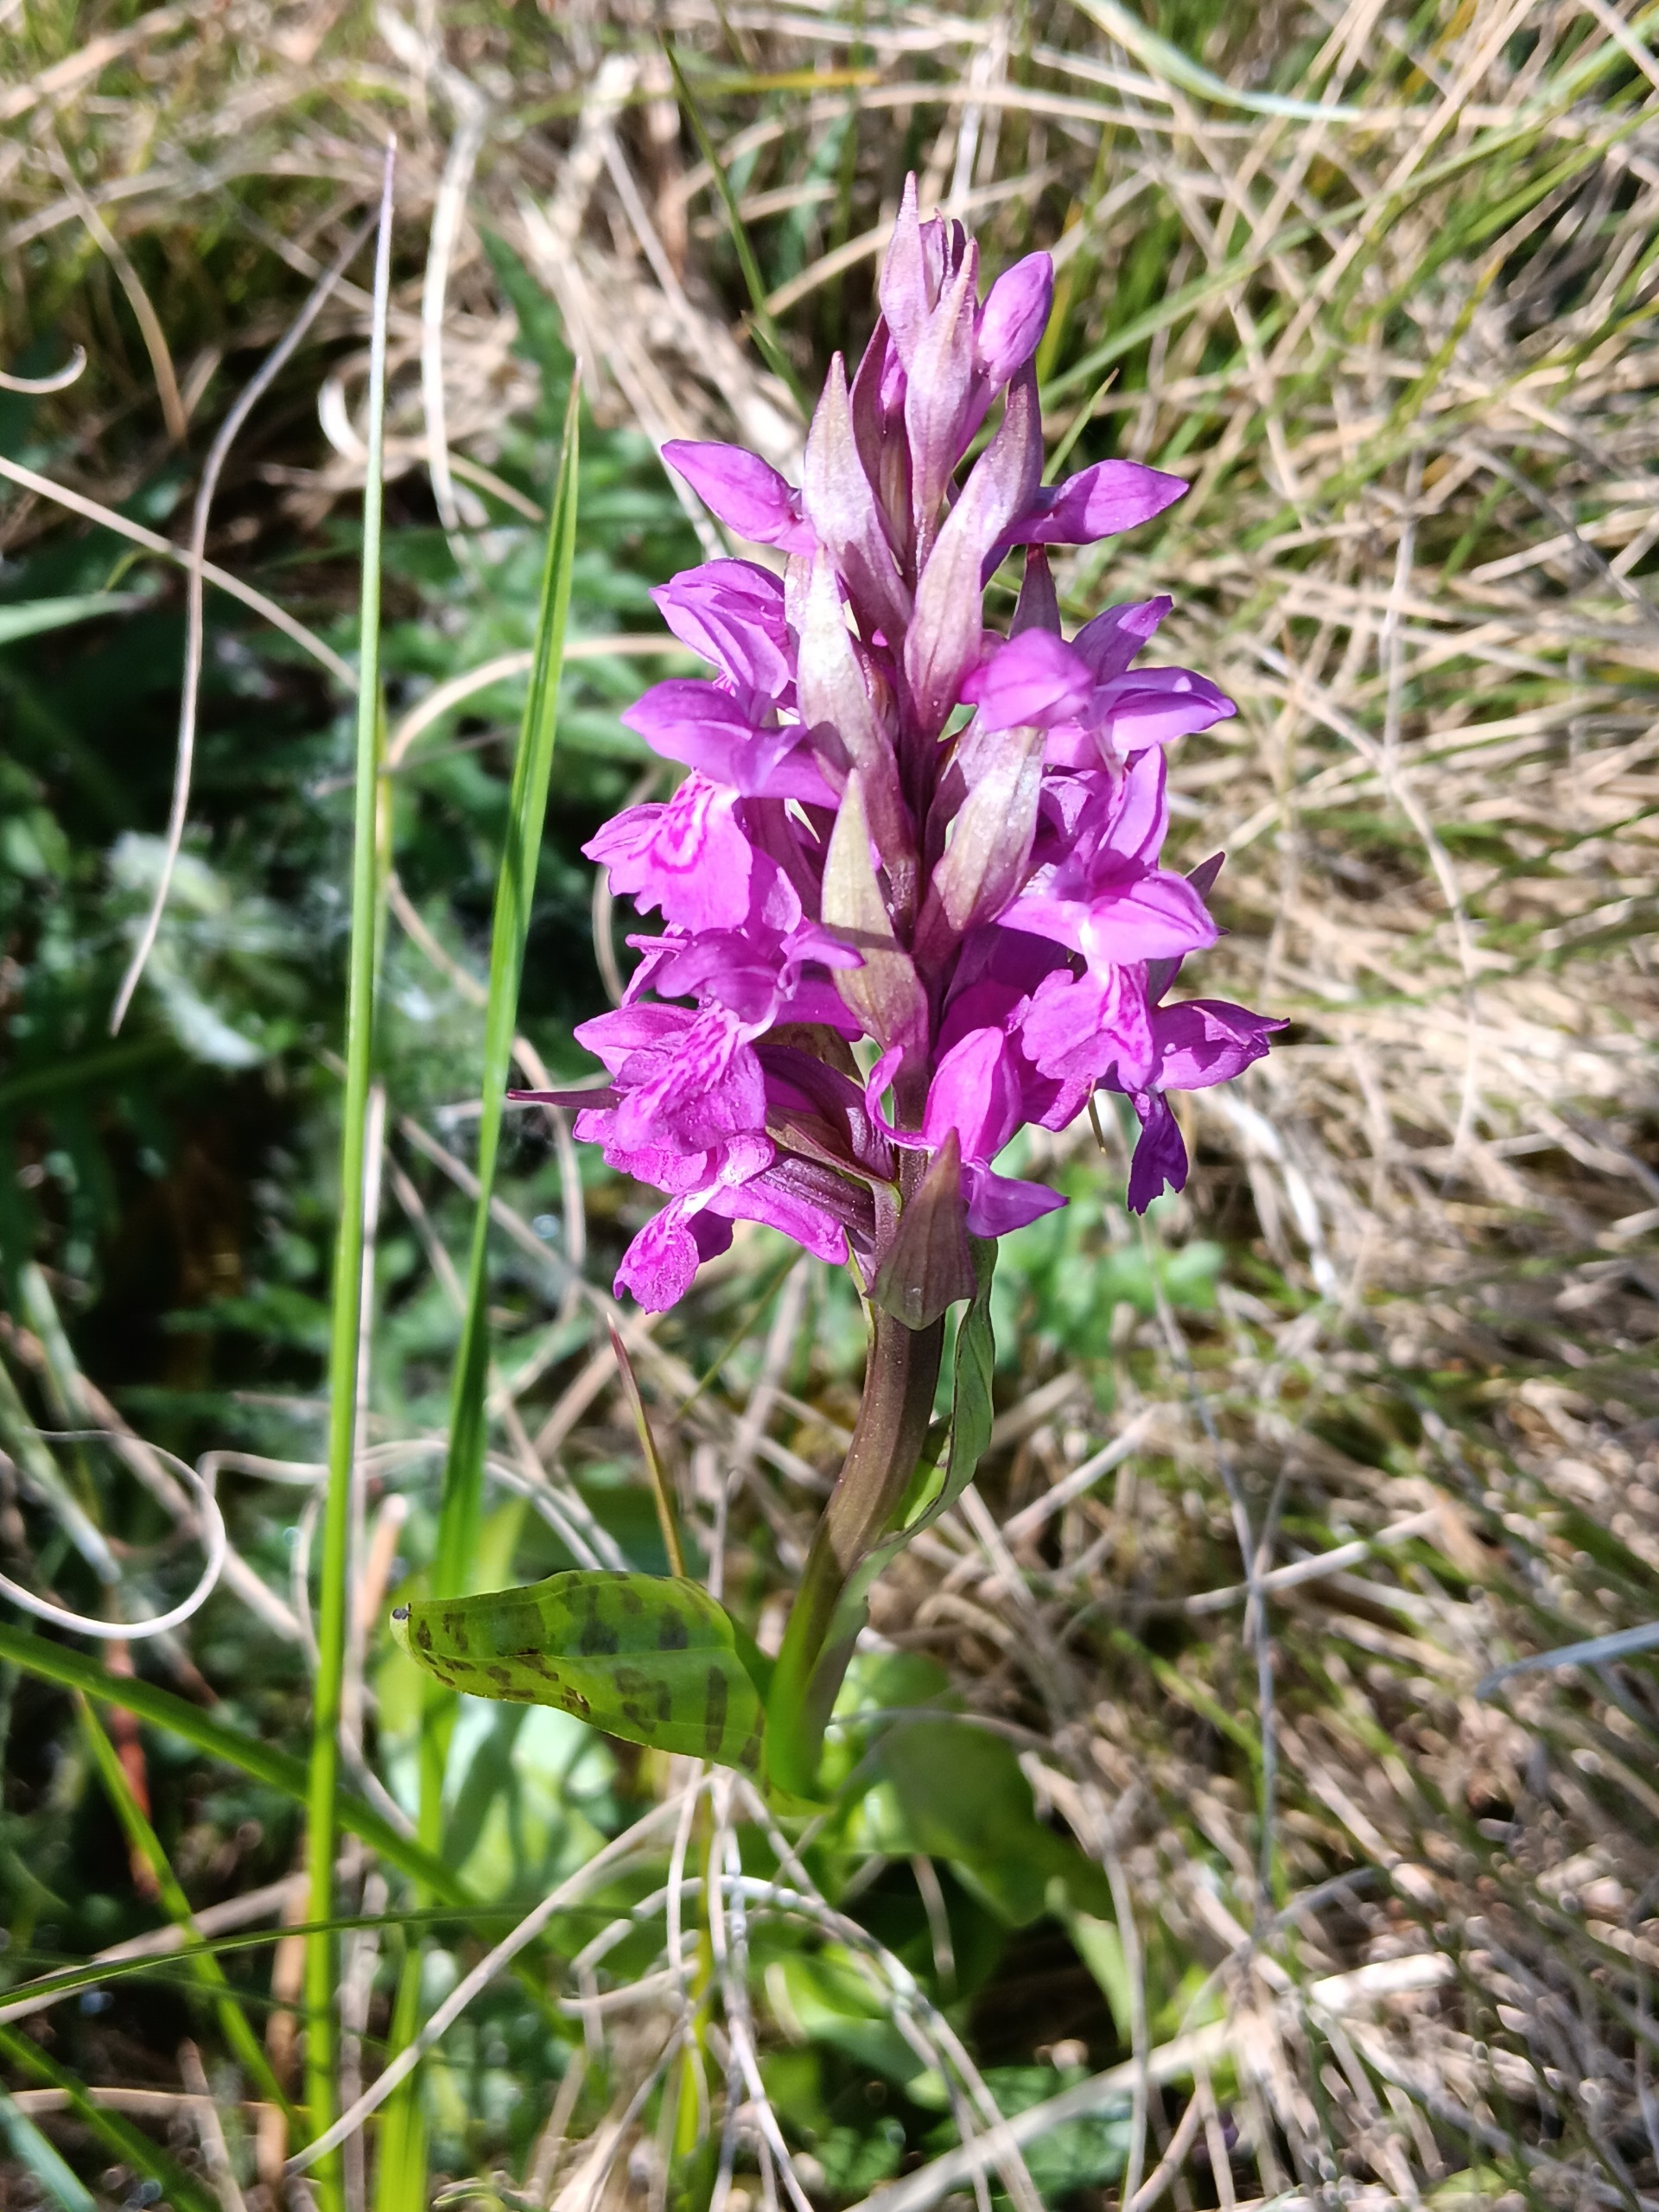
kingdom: Plantae
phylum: Tracheophyta
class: Liliopsida
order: Asparagales
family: Orchidaceae
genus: Dactylorhiza
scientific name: Dactylorhiza majalis
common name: Maj-gøgeurt
